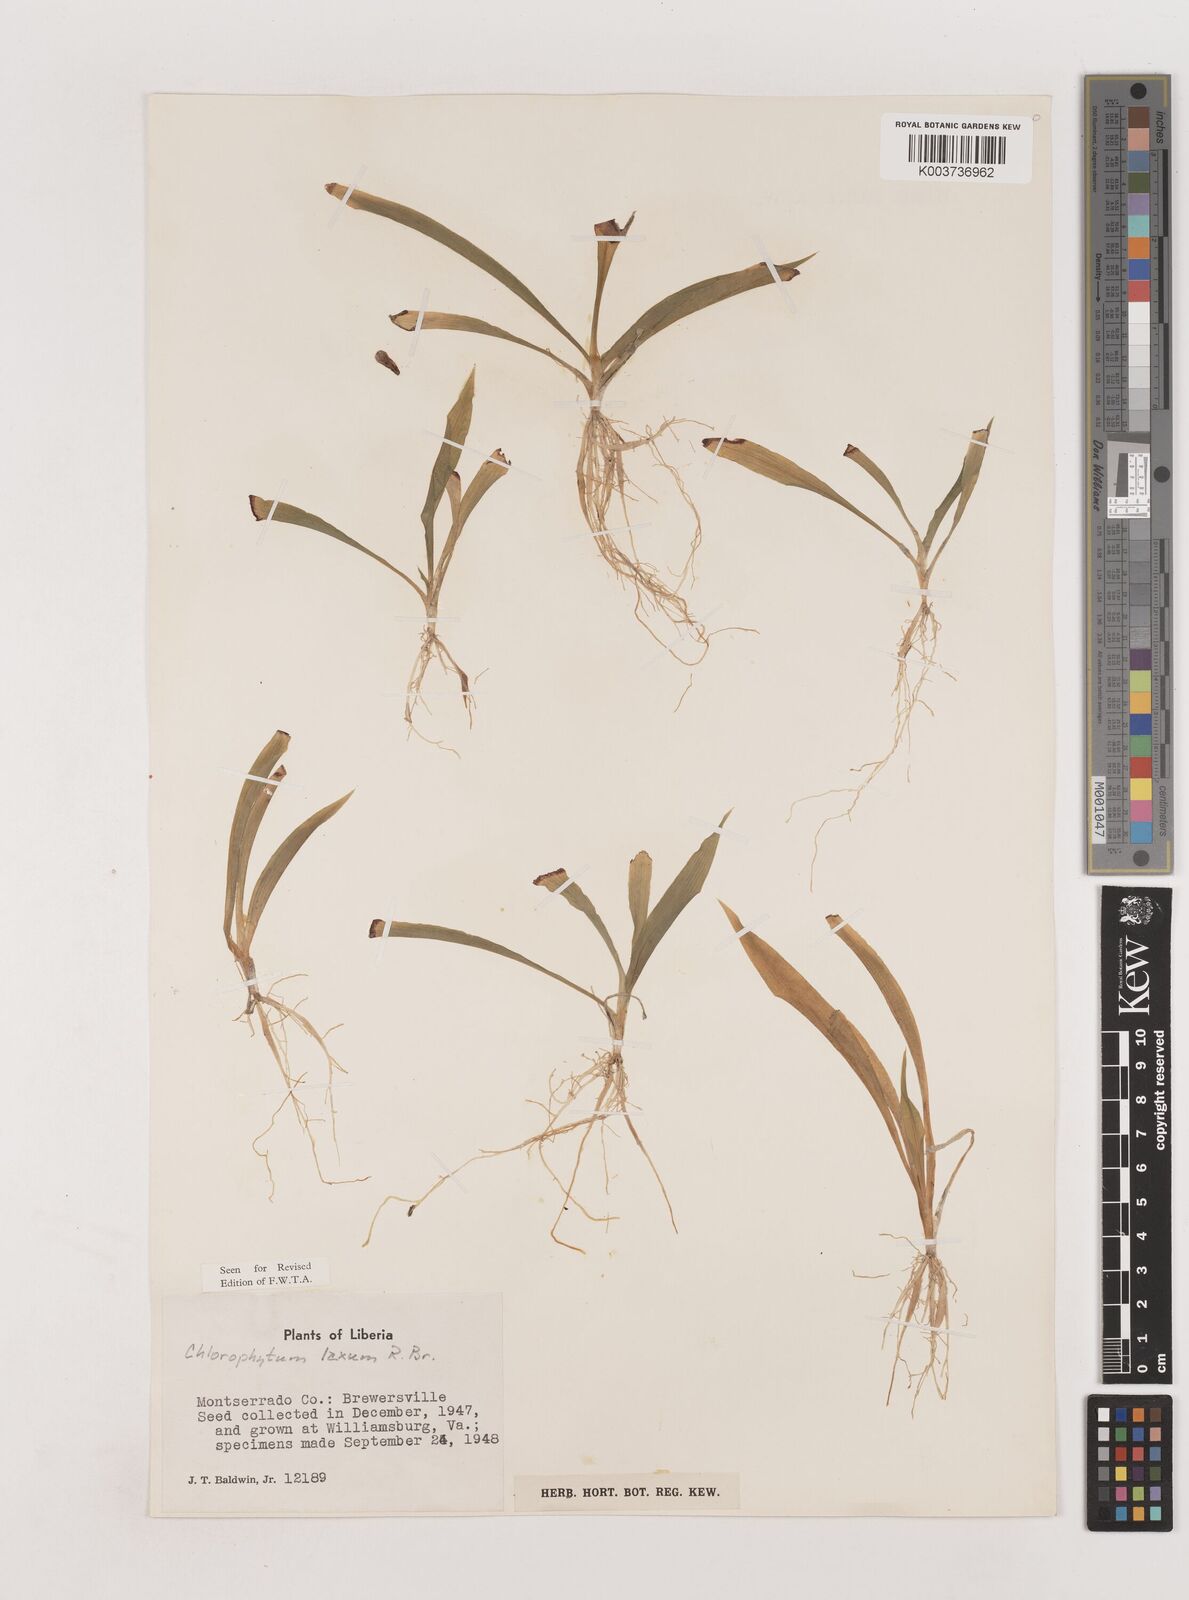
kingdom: Plantae
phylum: Tracheophyta
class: Liliopsida
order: Asparagales
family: Asparagaceae
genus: Chlorophytum
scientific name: Chlorophytum laxum
